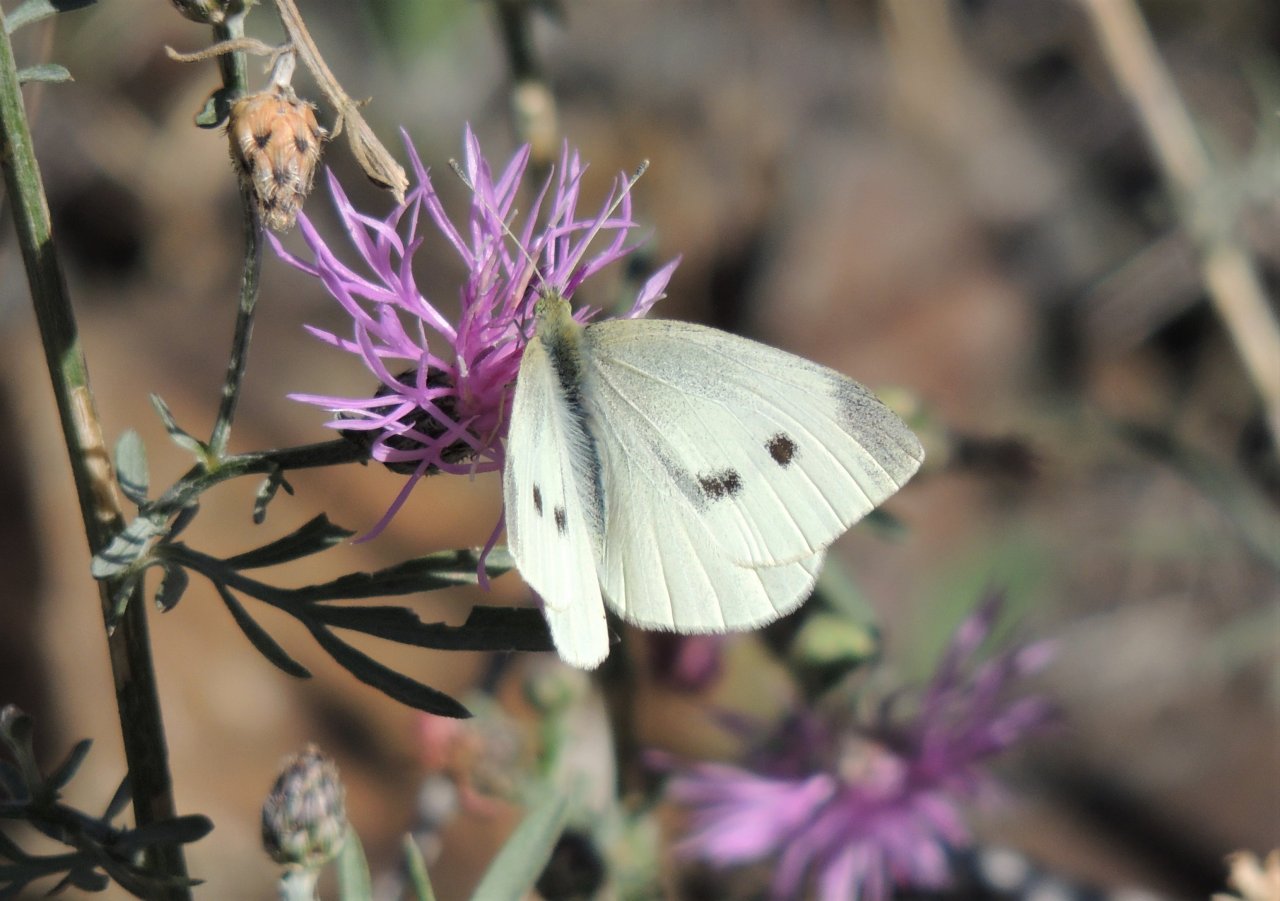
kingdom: Animalia
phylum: Arthropoda
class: Insecta
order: Lepidoptera
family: Pieridae
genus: Pieris
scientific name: Pieris rapae
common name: Cabbage White
